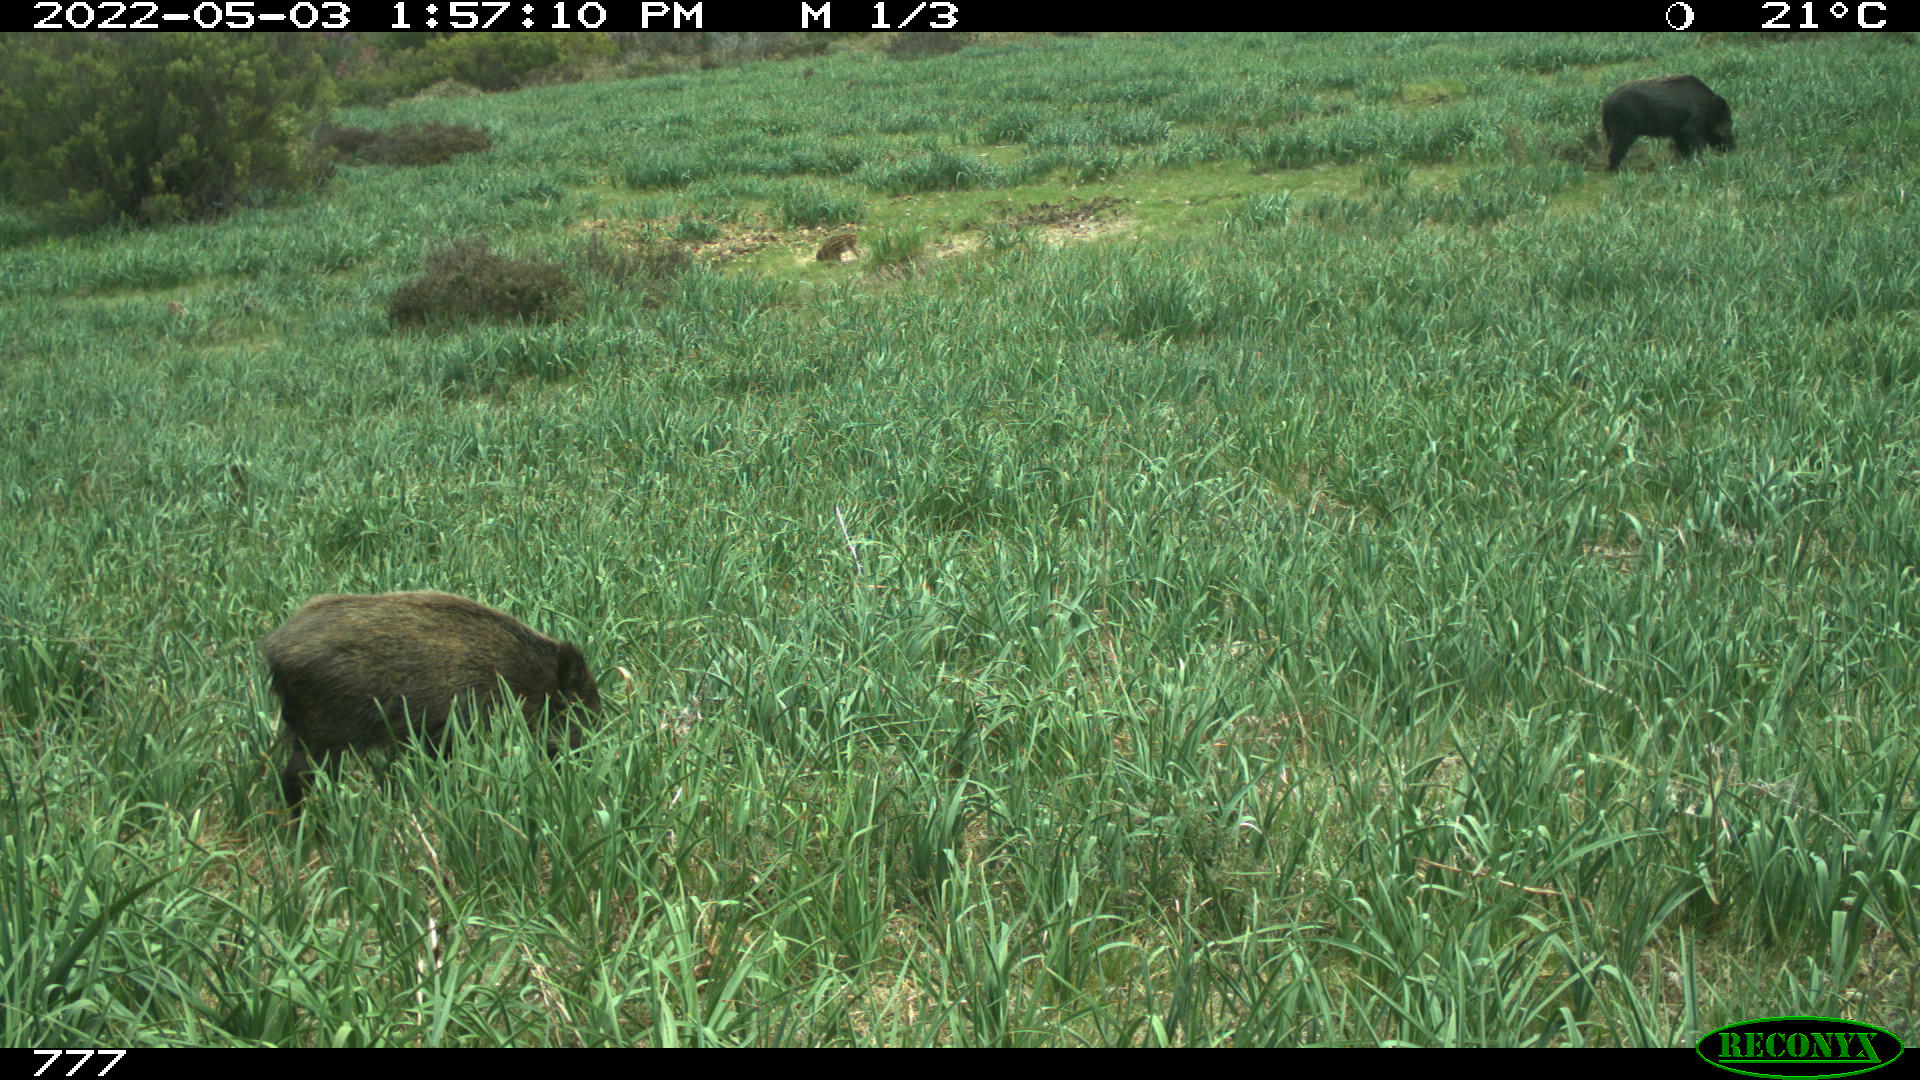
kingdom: Animalia
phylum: Chordata
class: Mammalia
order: Artiodactyla
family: Suidae
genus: Sus
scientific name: Sus scrofa
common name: Wild boar
